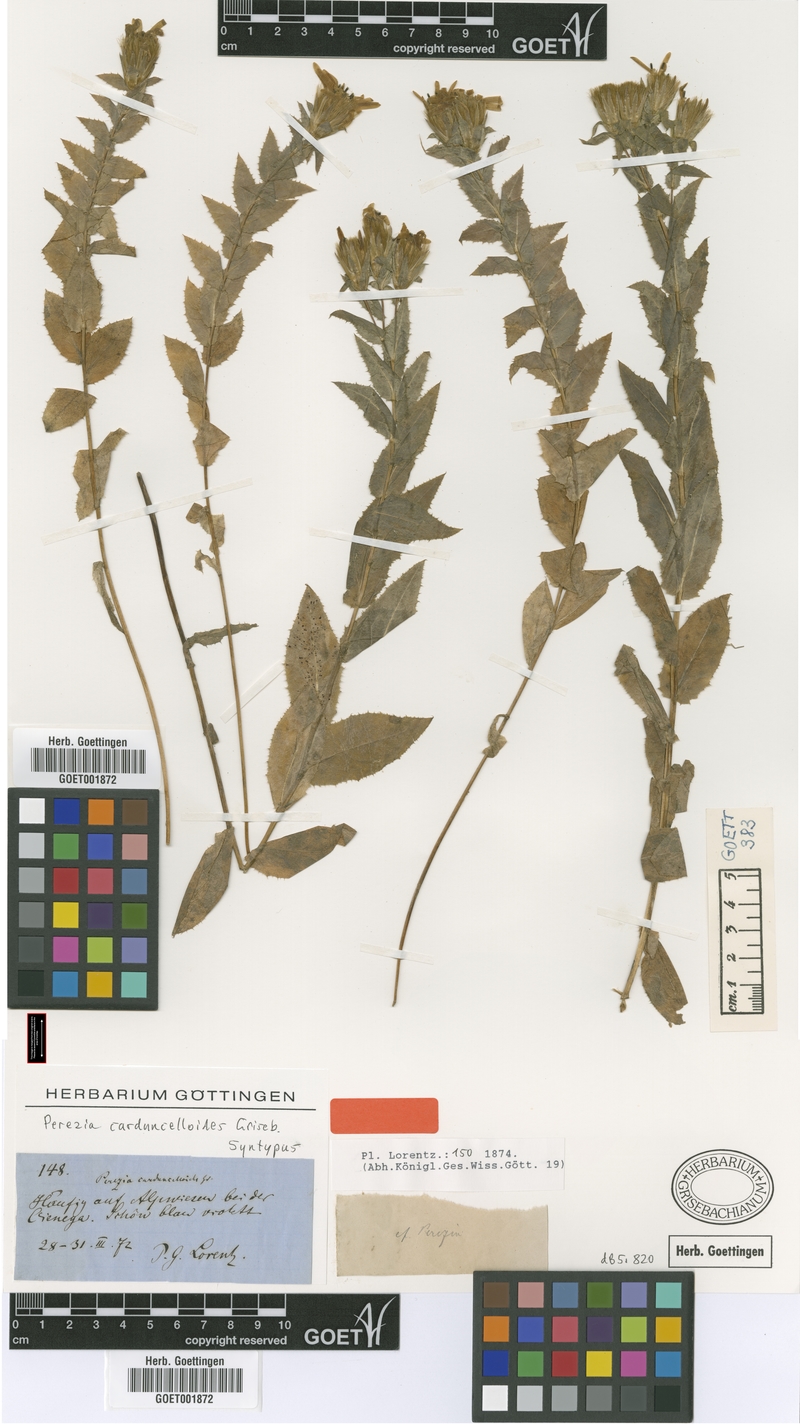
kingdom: Plantae
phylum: Tracheophyta
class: Magnoliopsida
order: Asterales
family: Asteraceae
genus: Perezia
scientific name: Perezia pungens
